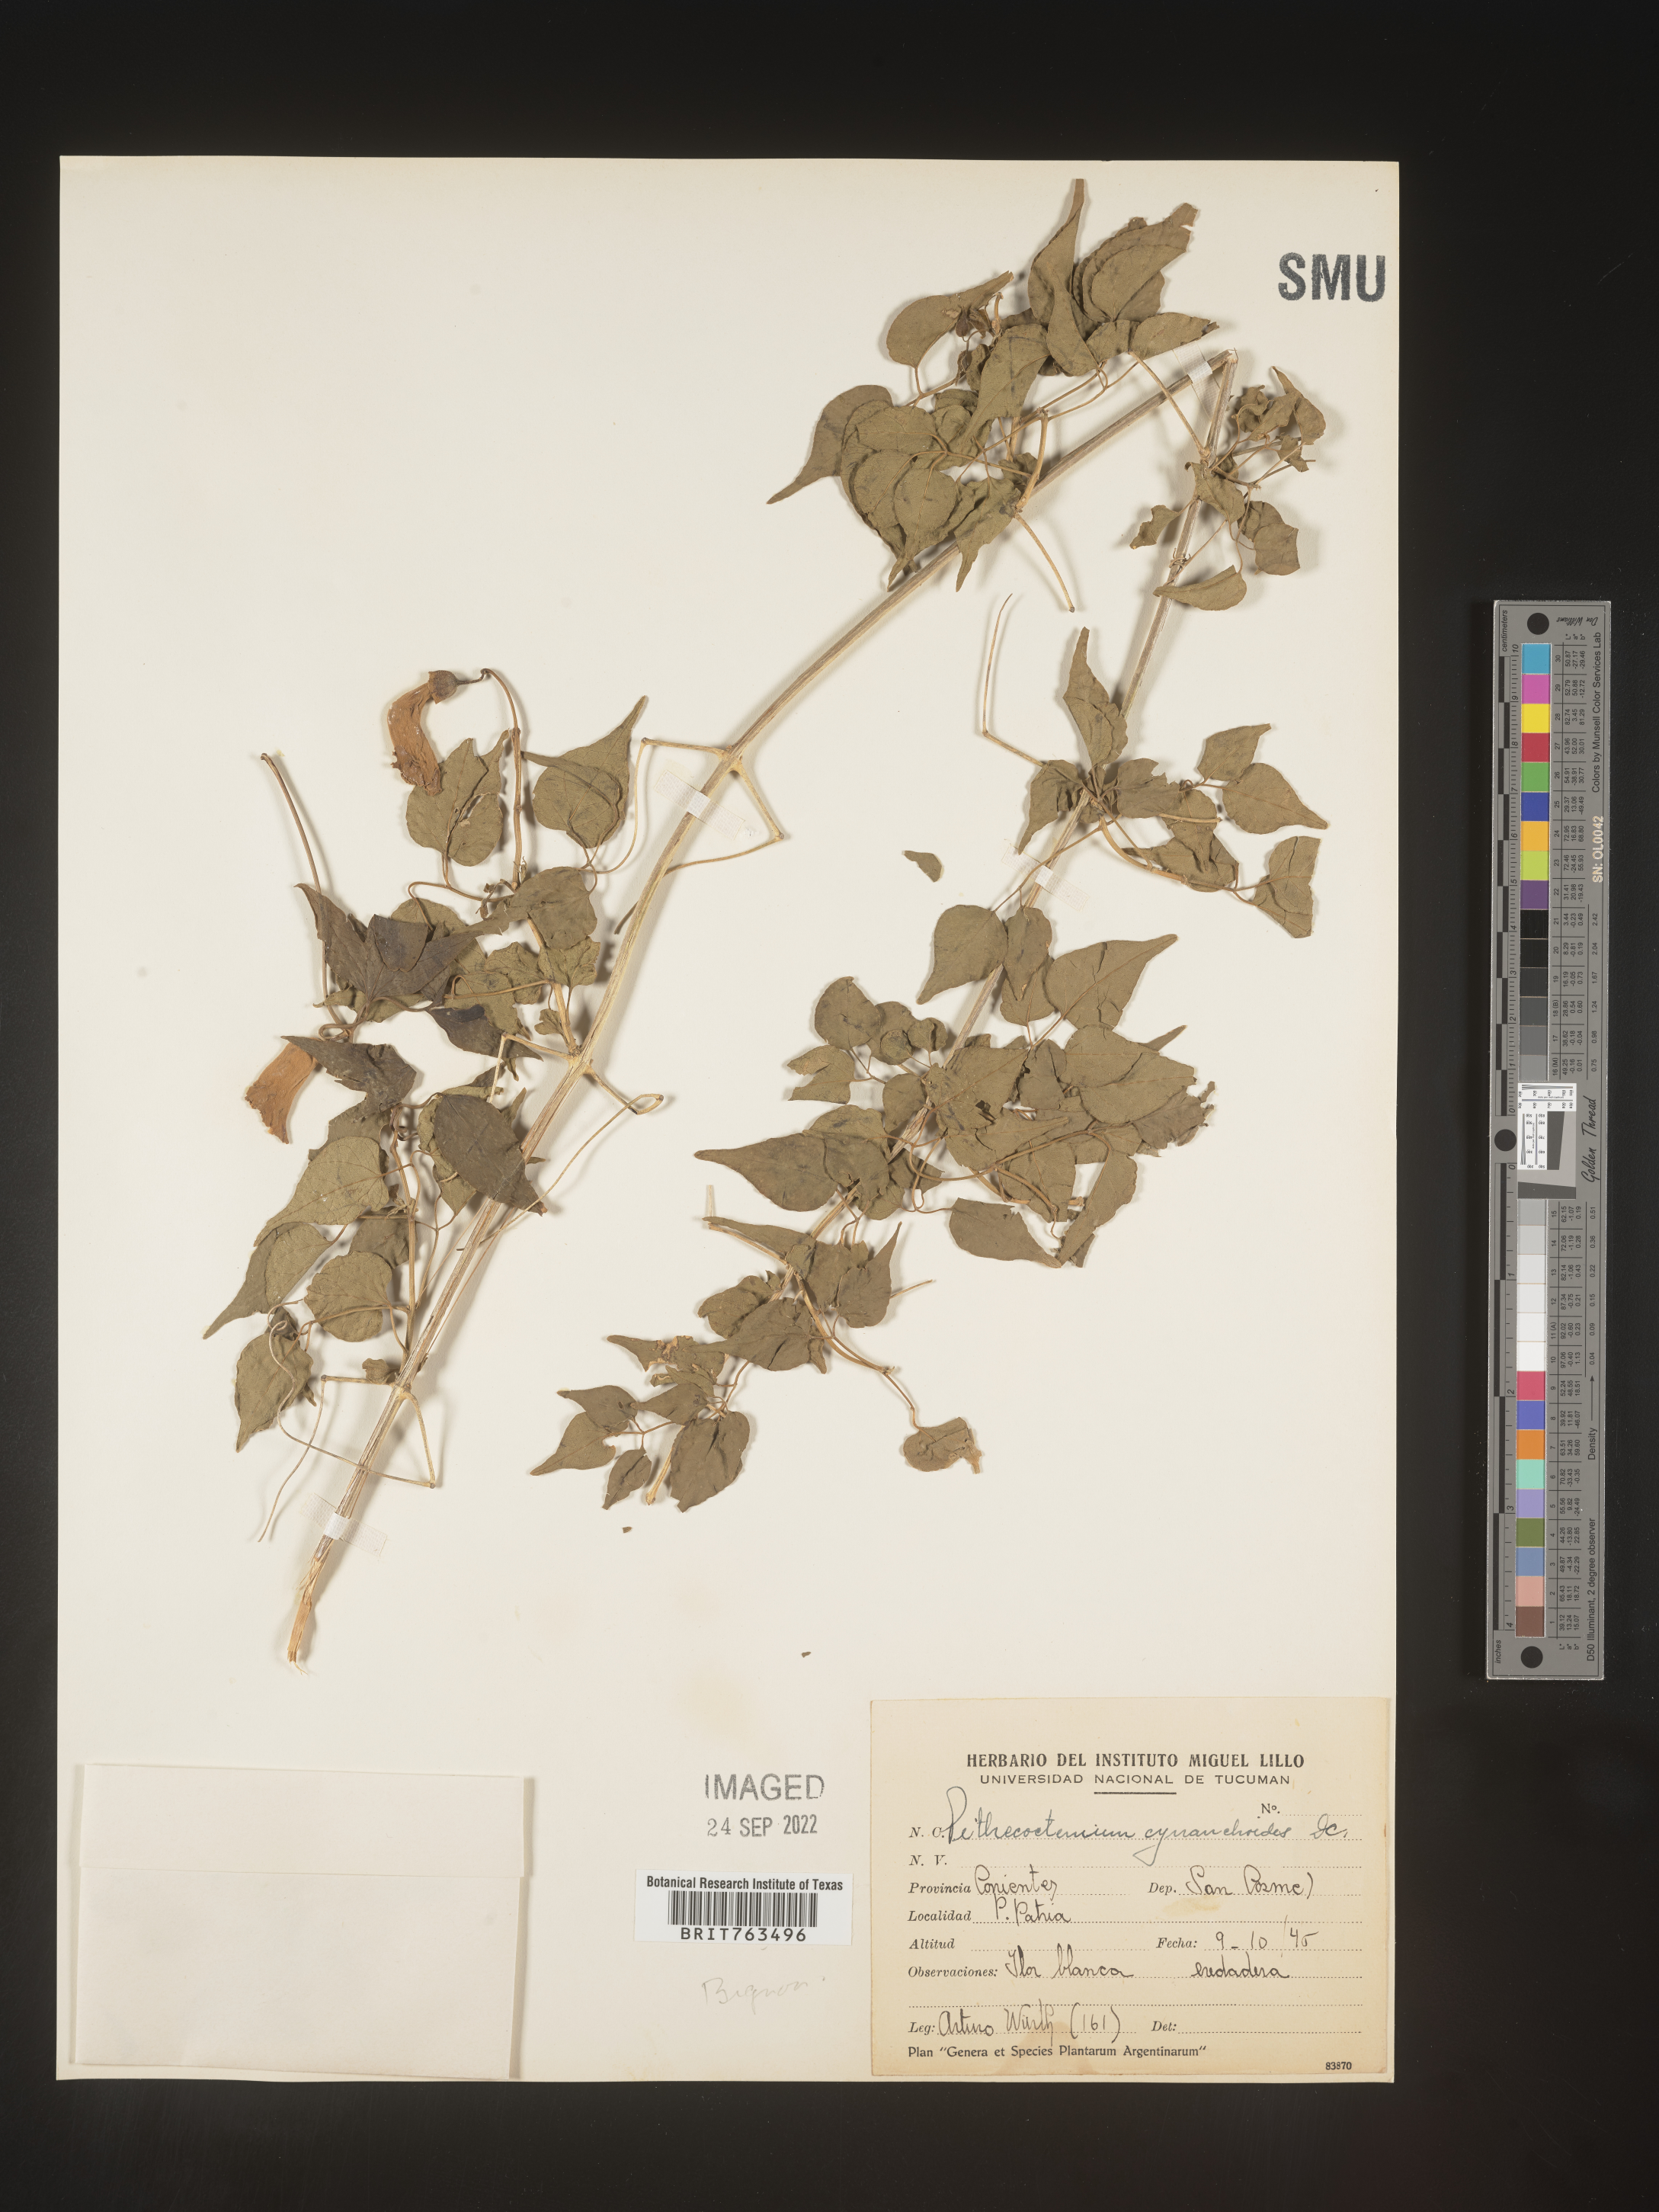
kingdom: Plantae
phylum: Tracheophyta
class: Magnoliopsida
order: Lamiales
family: Bignoniaceae
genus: Pithecoctenium
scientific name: Pithecoctenium
